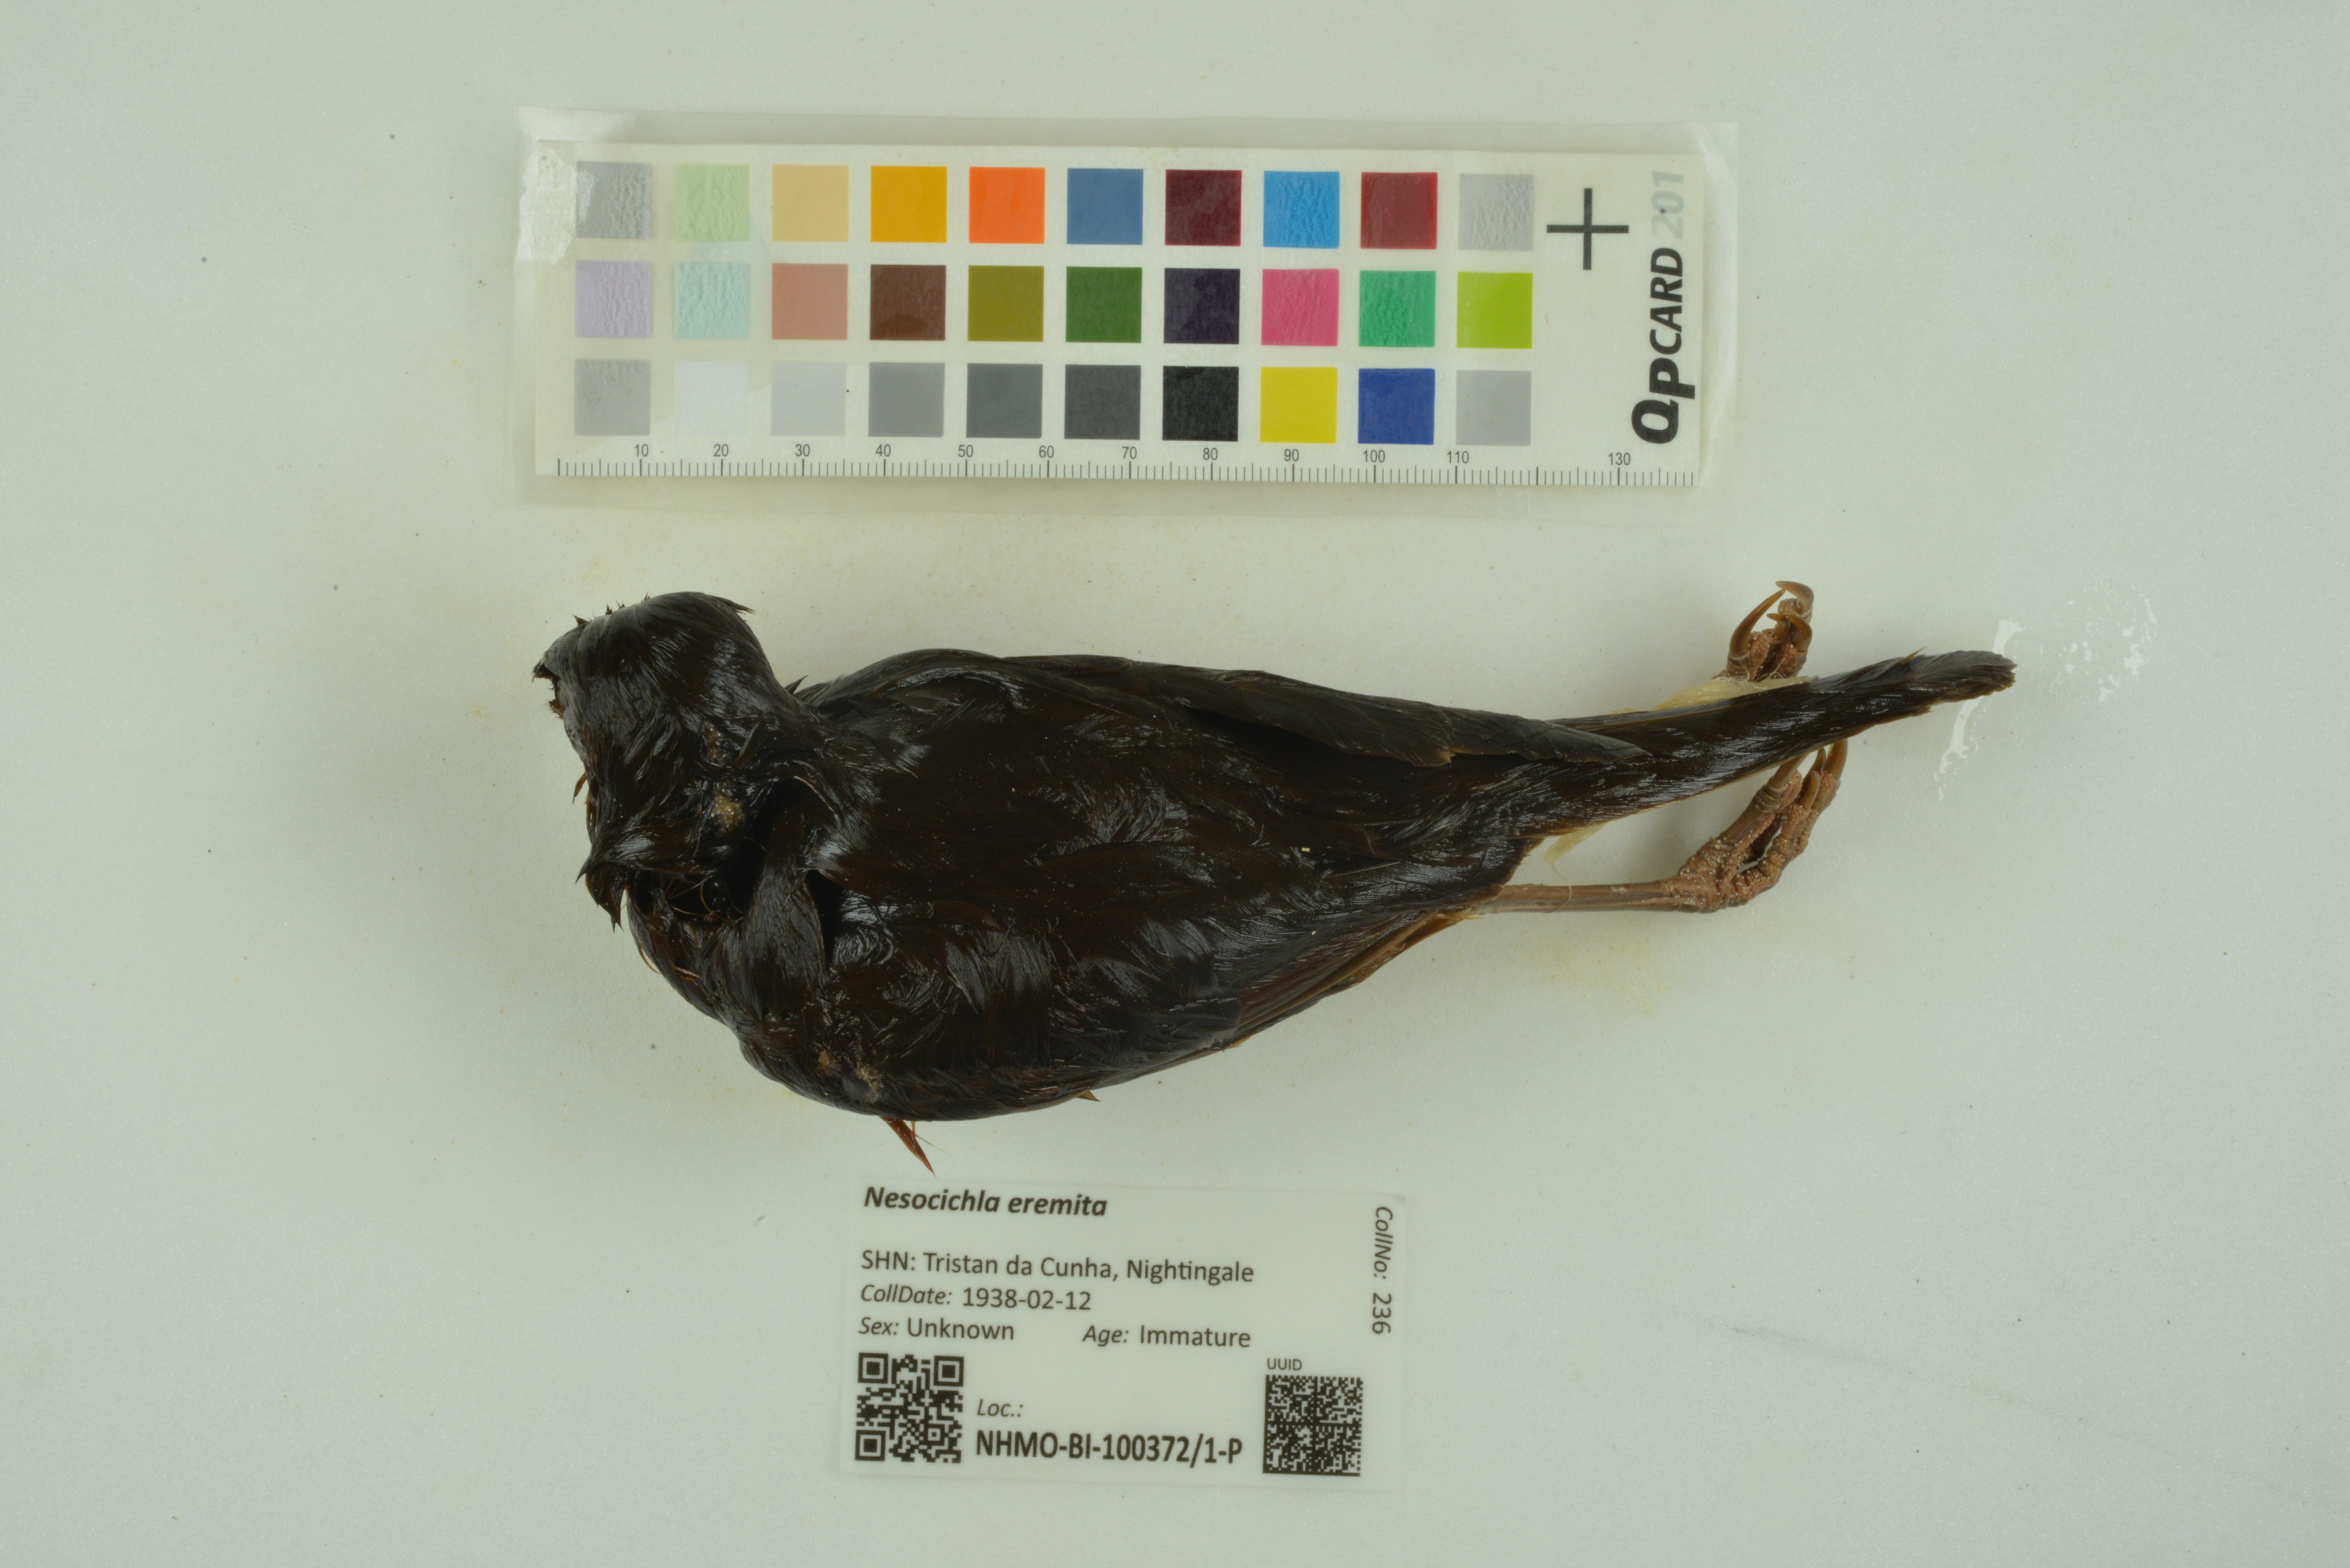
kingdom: Animalia
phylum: Chordata
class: Aves
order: Passeriformes
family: Turdidae
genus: Nesocichla
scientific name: Nesocichla eremita
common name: Tristan thrush
